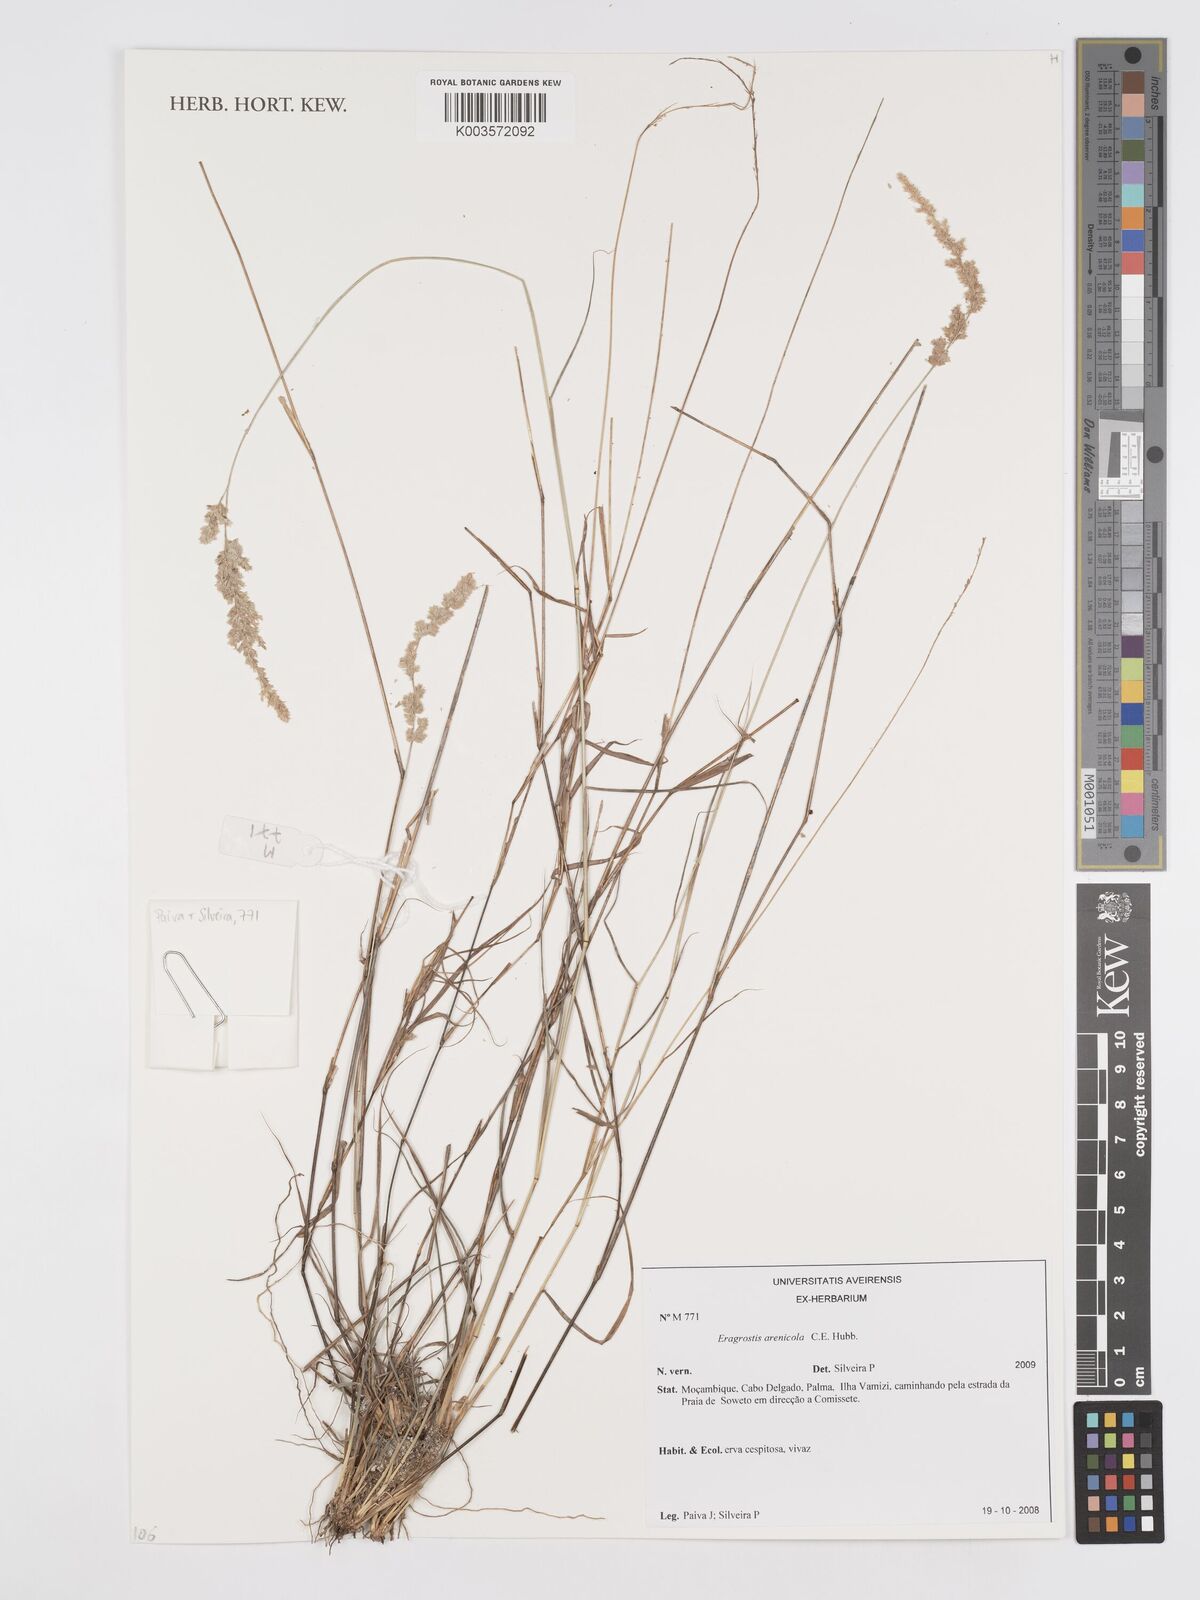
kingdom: Plantae
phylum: Tracheophyta
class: Liliopsida
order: Poales
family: Poaceae
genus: Eragrostis
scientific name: Eragrostis arenicola
